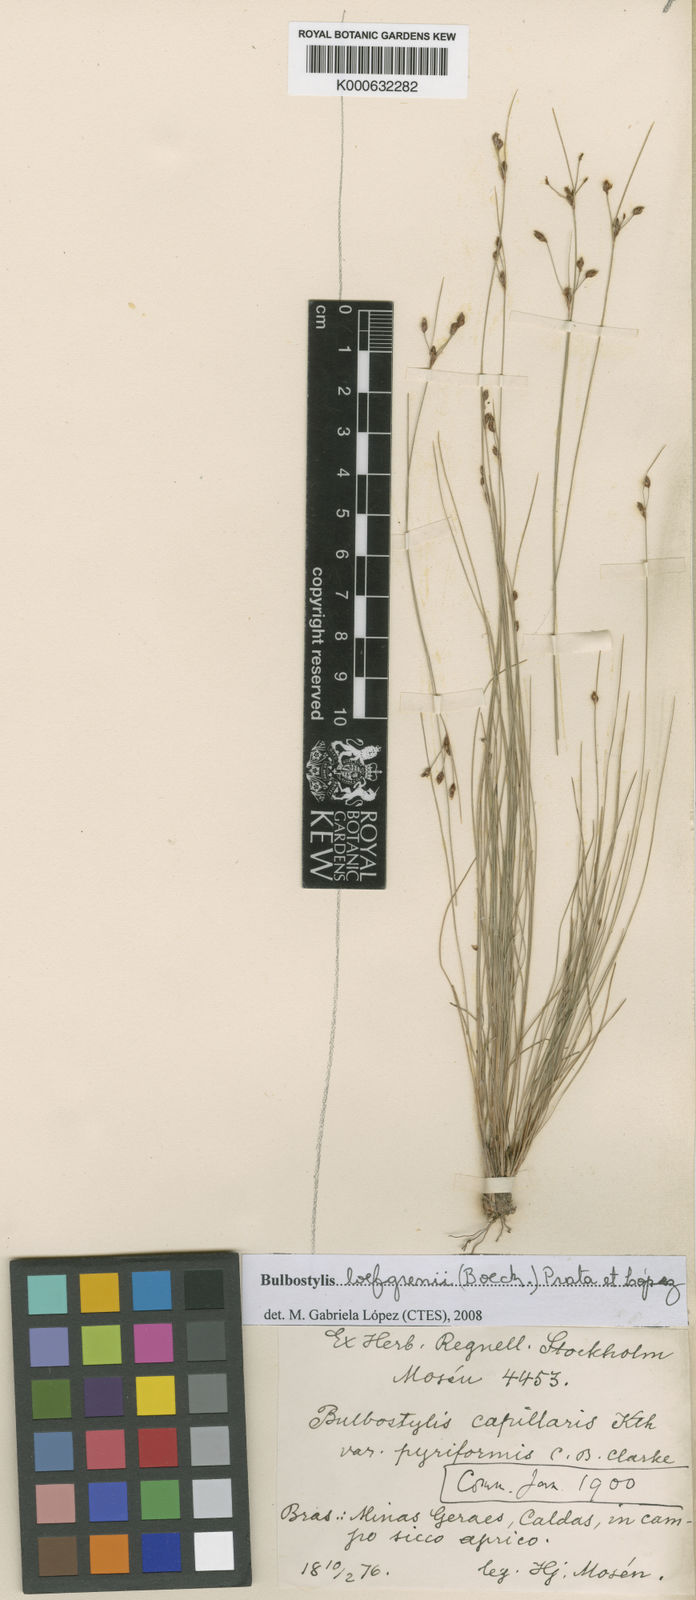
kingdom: Plantae
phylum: Tracheophyta
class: Liliopsida
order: Poales
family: Cyperaceae
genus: Bulbostylis
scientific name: Bulbostylis
